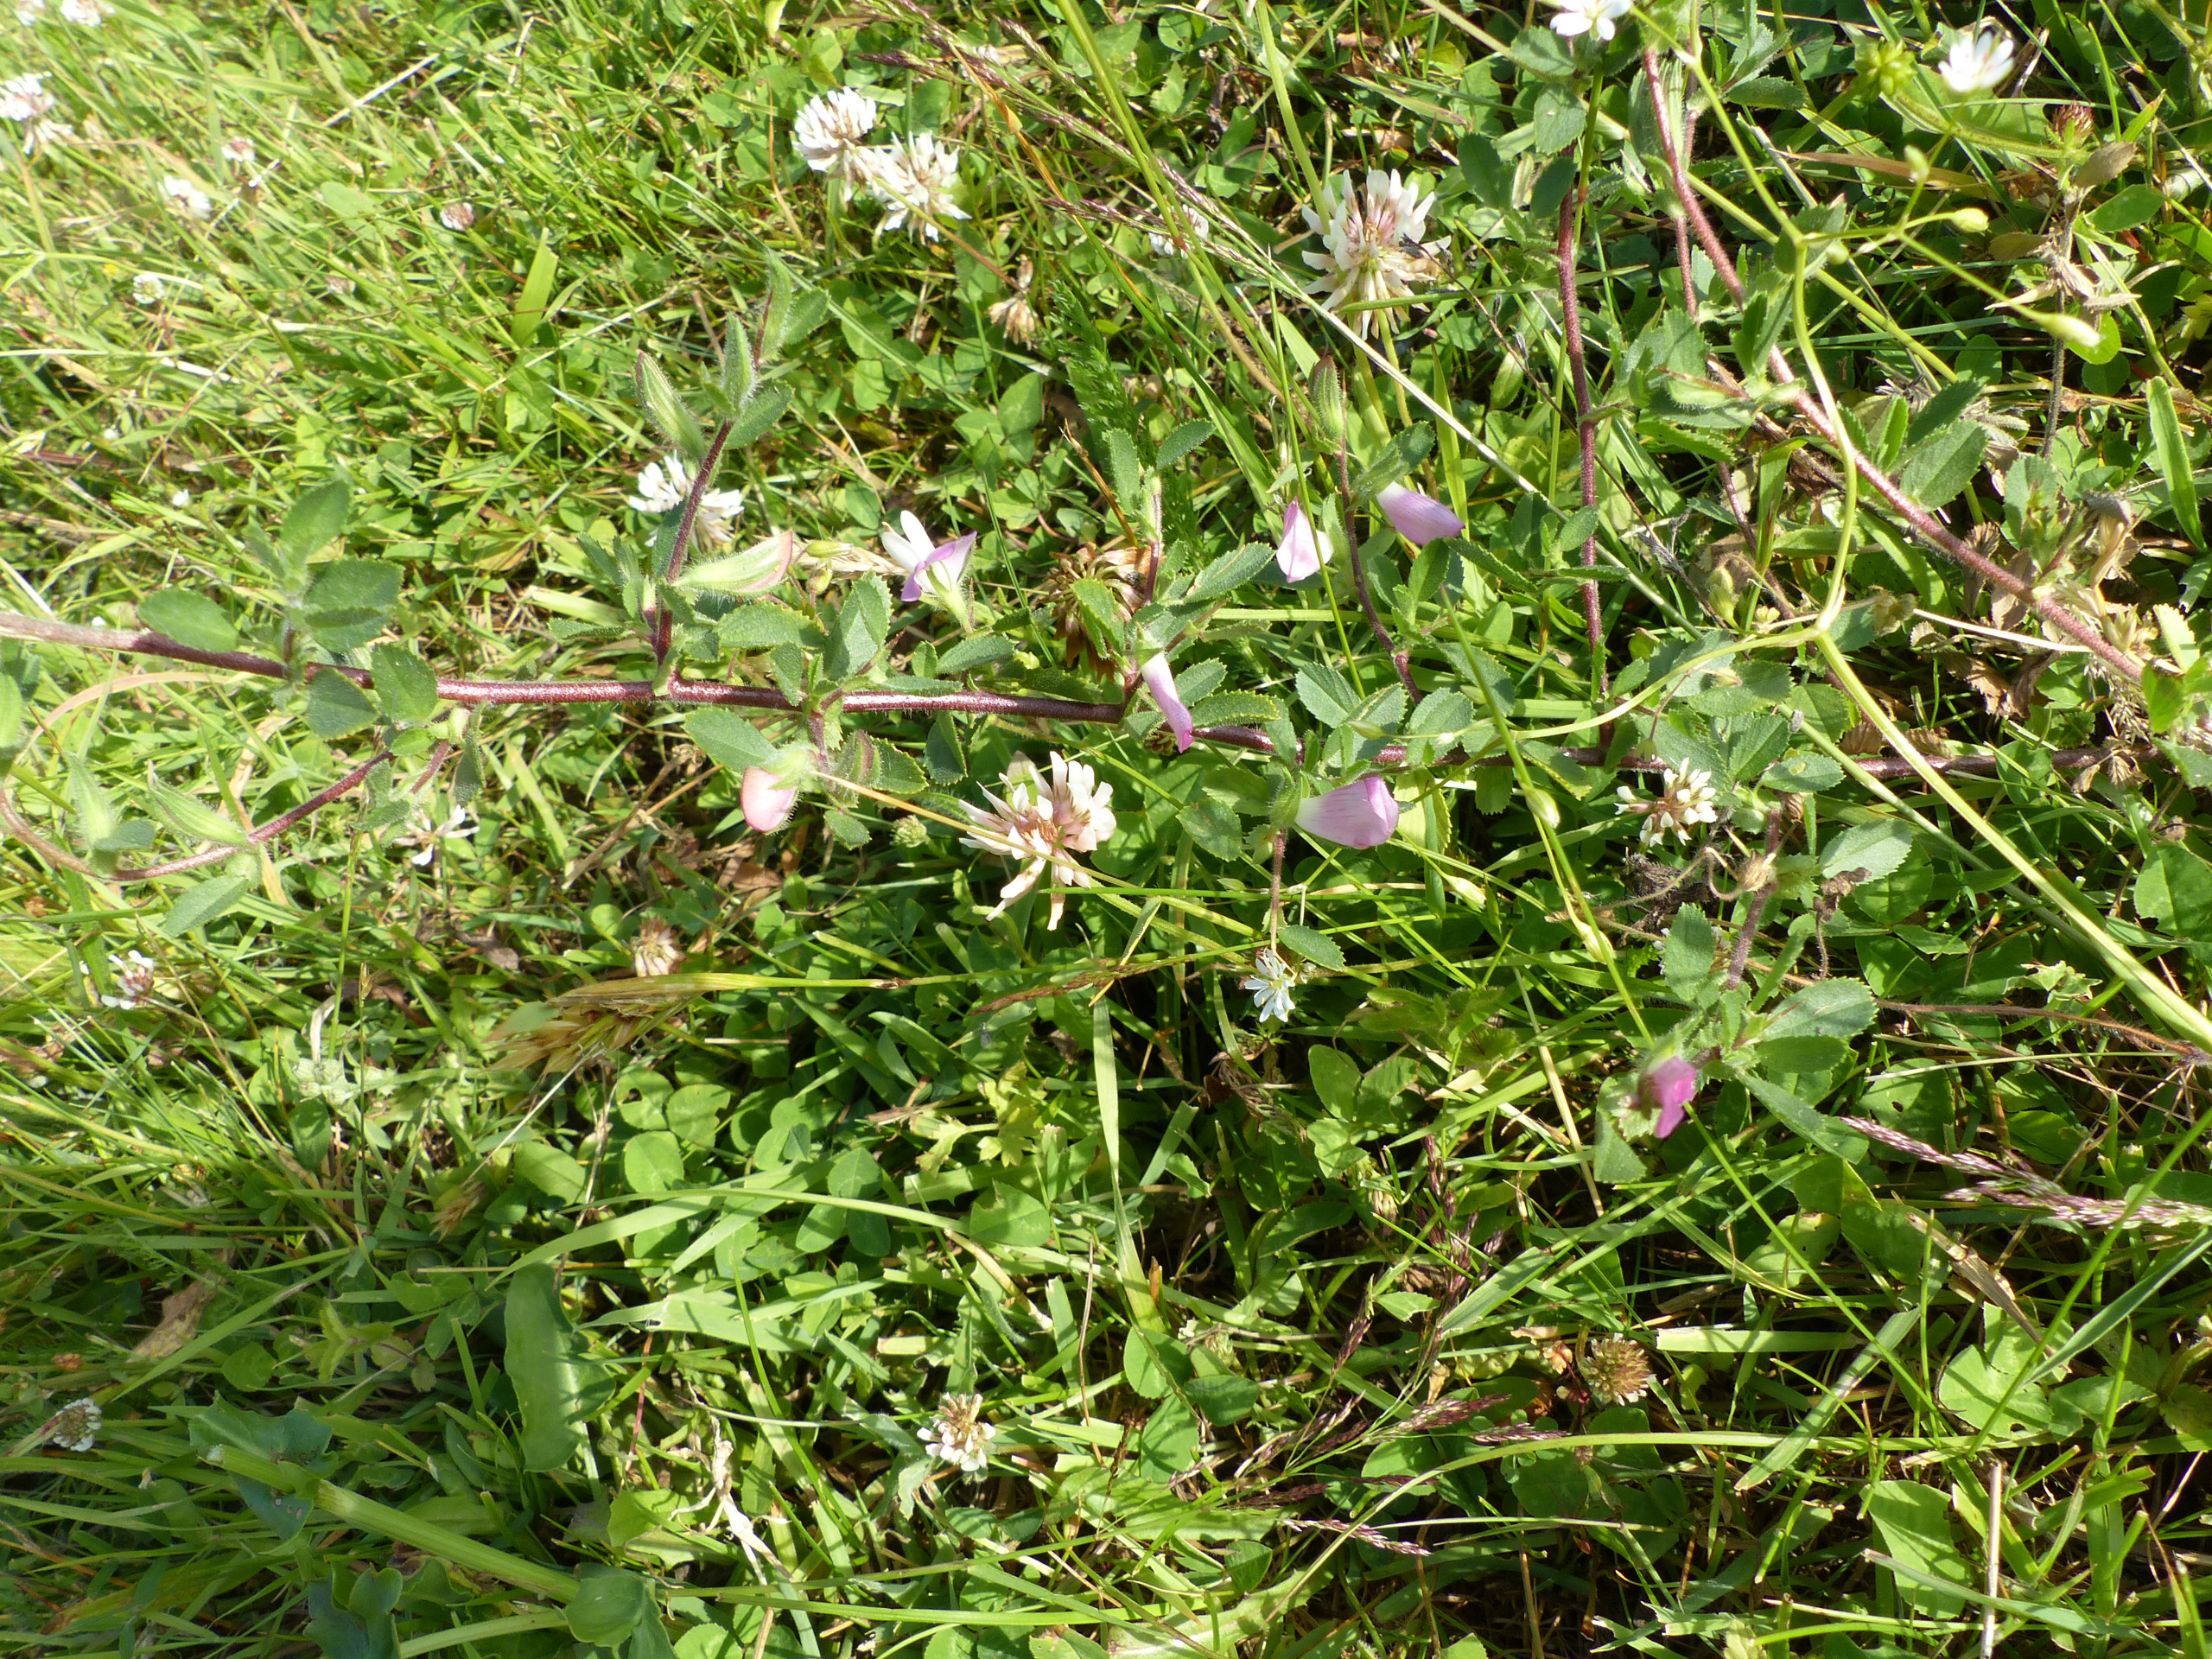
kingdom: Plantae
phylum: Tracheophyta
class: Magnoliopsida
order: Fabales
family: Fabaceae
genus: Ononis
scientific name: Ononis spinosa
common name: Mark-krageklo
